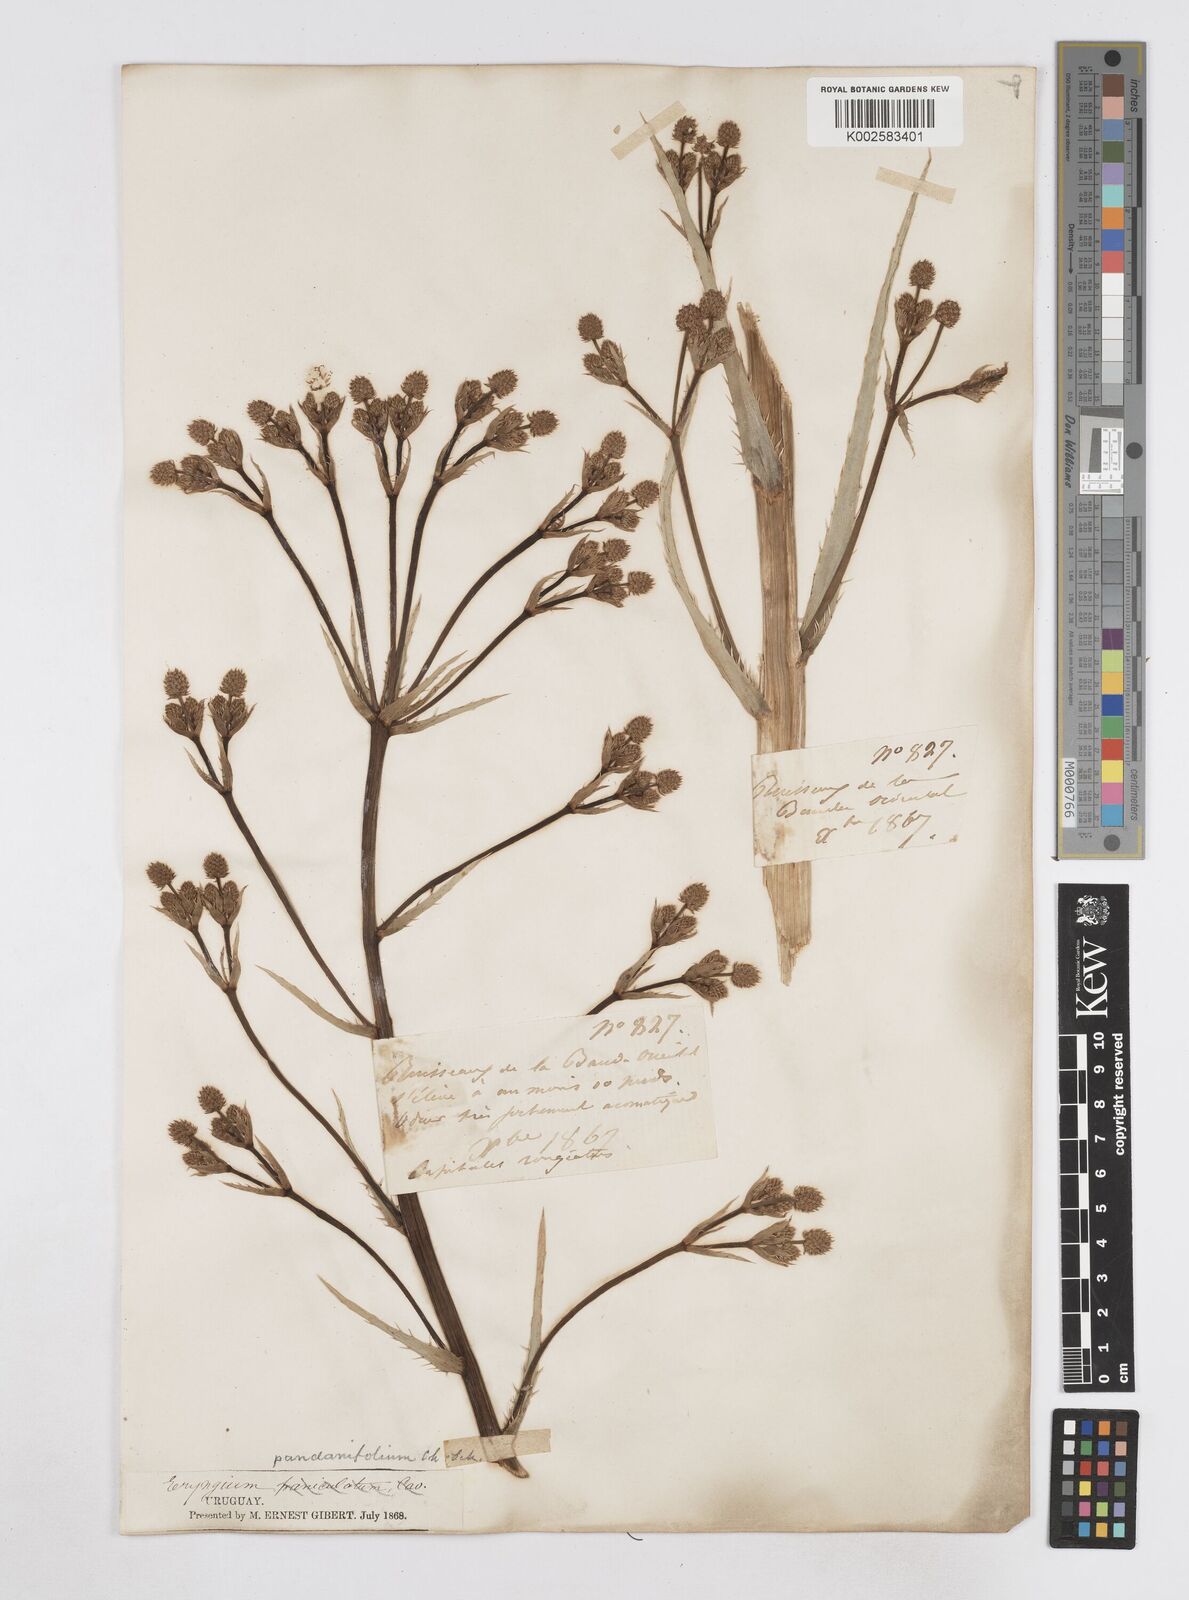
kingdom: Plantae
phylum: Tracheophyta
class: Magnoliopsida
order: Apiales
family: Apiaceae
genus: Eryngium
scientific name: Eryngium pandanifolium
